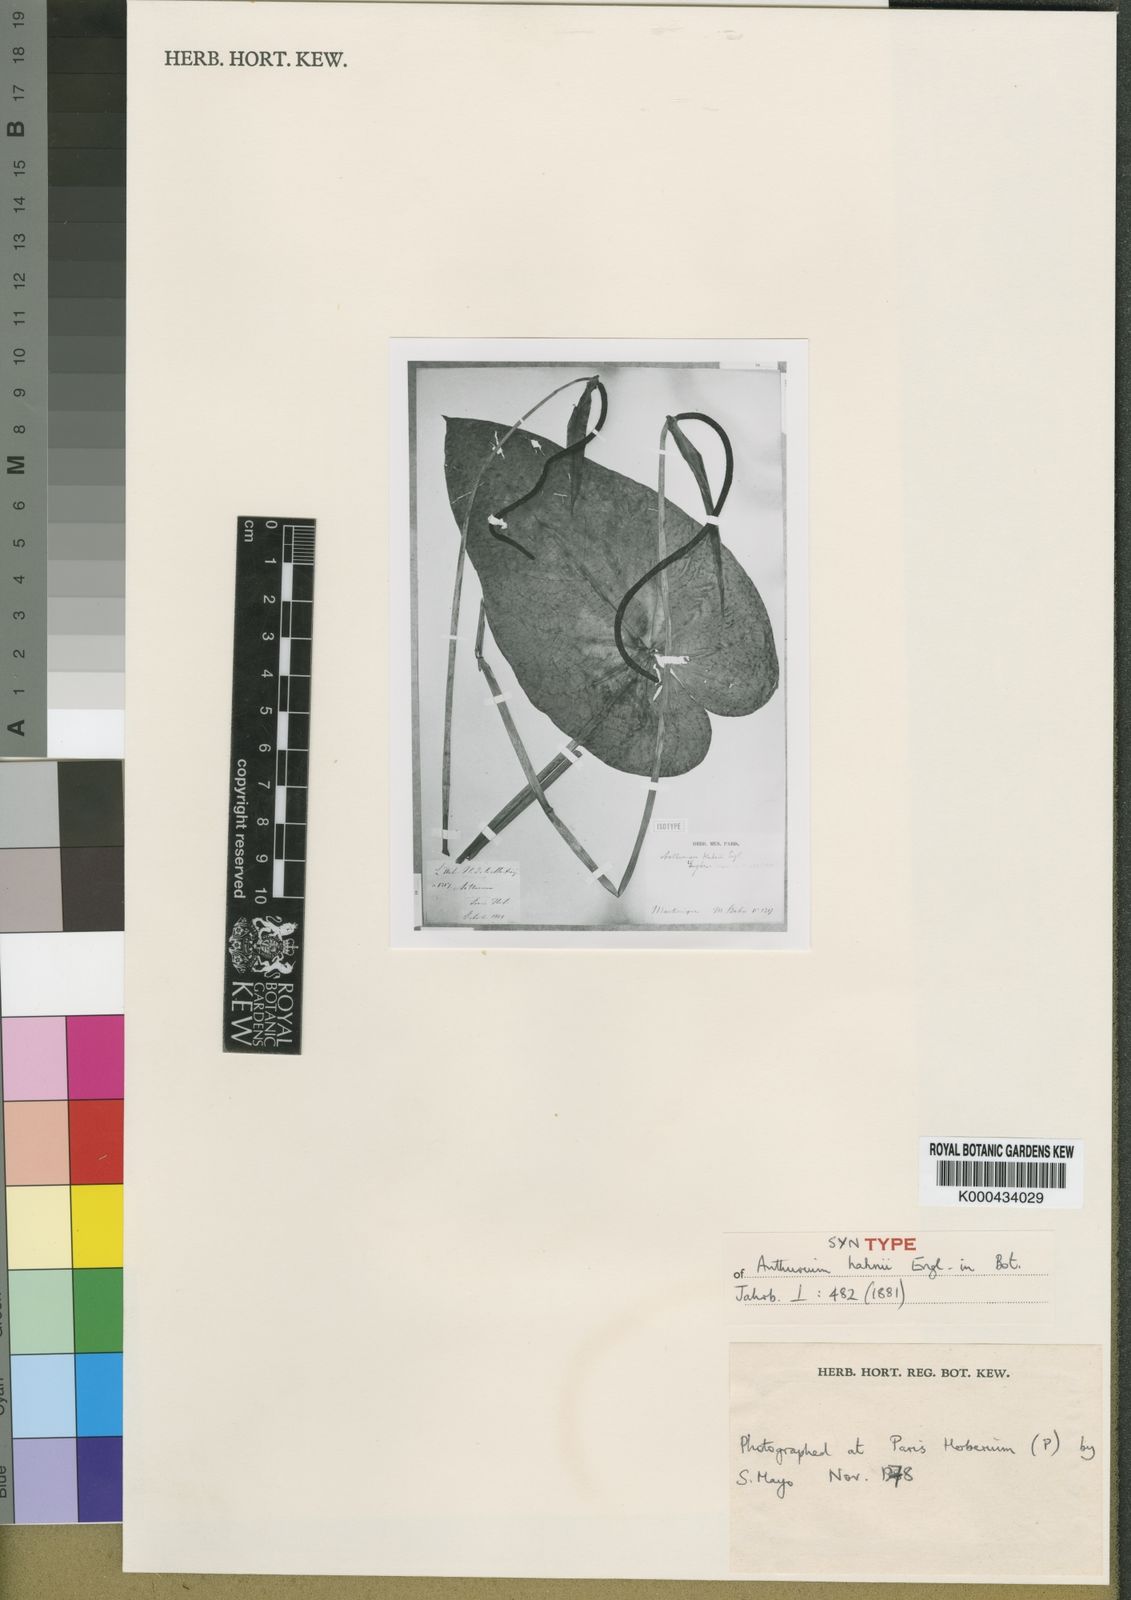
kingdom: Plantae
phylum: Tracheophyta
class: Liliopsida
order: Alismatales
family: Araceae
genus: Anthurium
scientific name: Anthurium grandifolium
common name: Monkey tail
